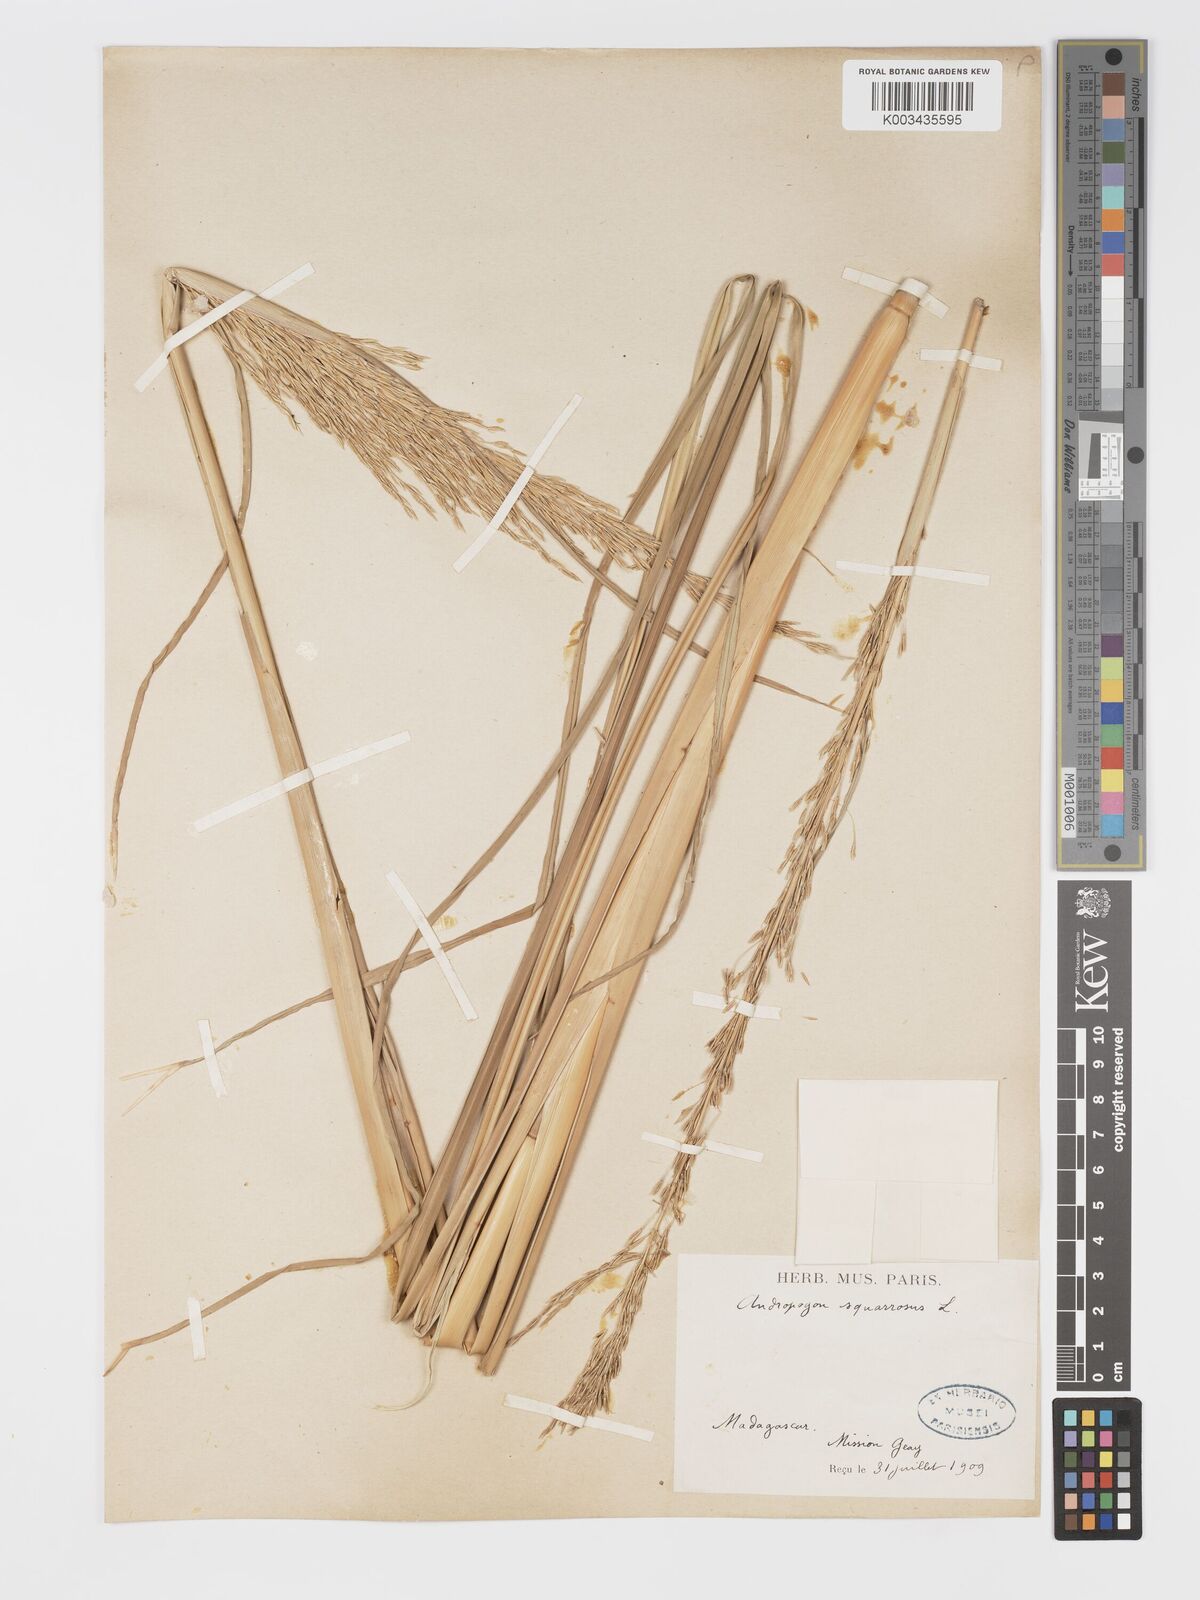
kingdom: Plantae
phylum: Tracheophyta
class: Liliopsida
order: Poales
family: Poaceae
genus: Chrysopogon
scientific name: Chrysopogon zizanioides
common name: False beardgrass
